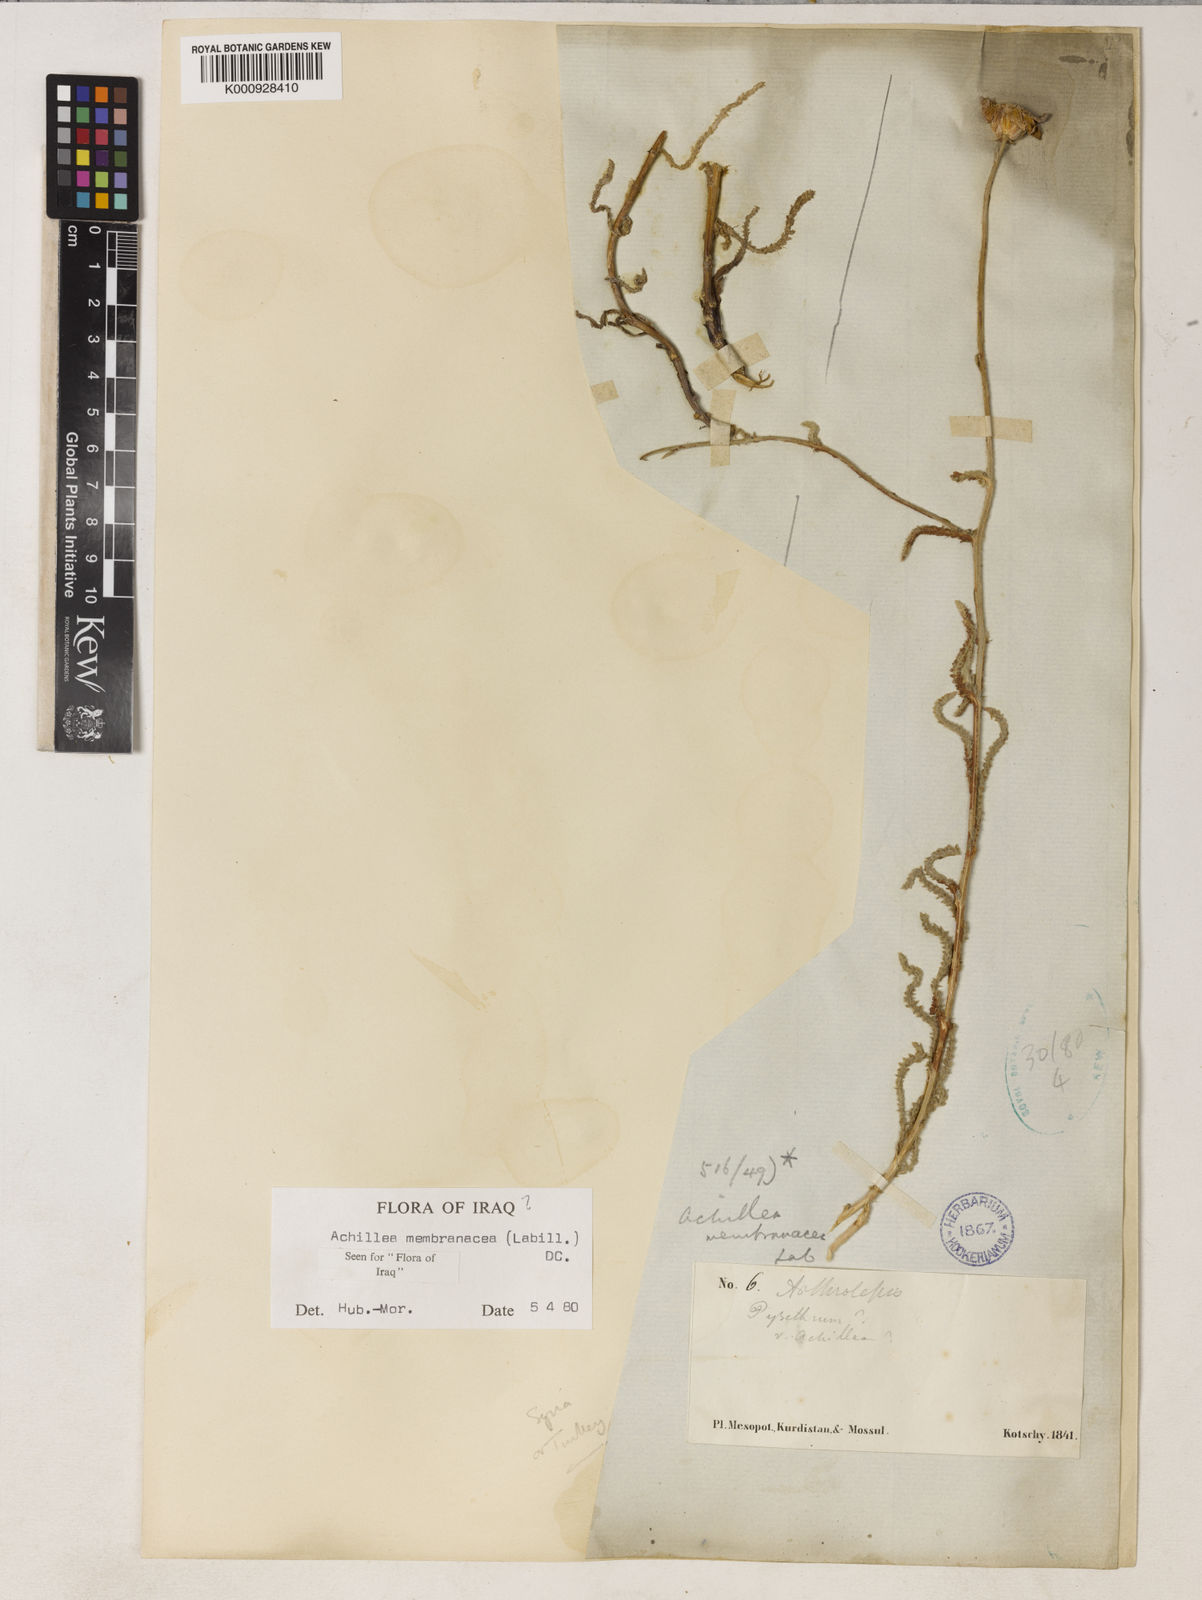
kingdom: Plantae
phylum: Tracheophyta
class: Magnoliopsida
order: Asterales
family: Asteraceae
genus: Achillea
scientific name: Achillea membranacea
